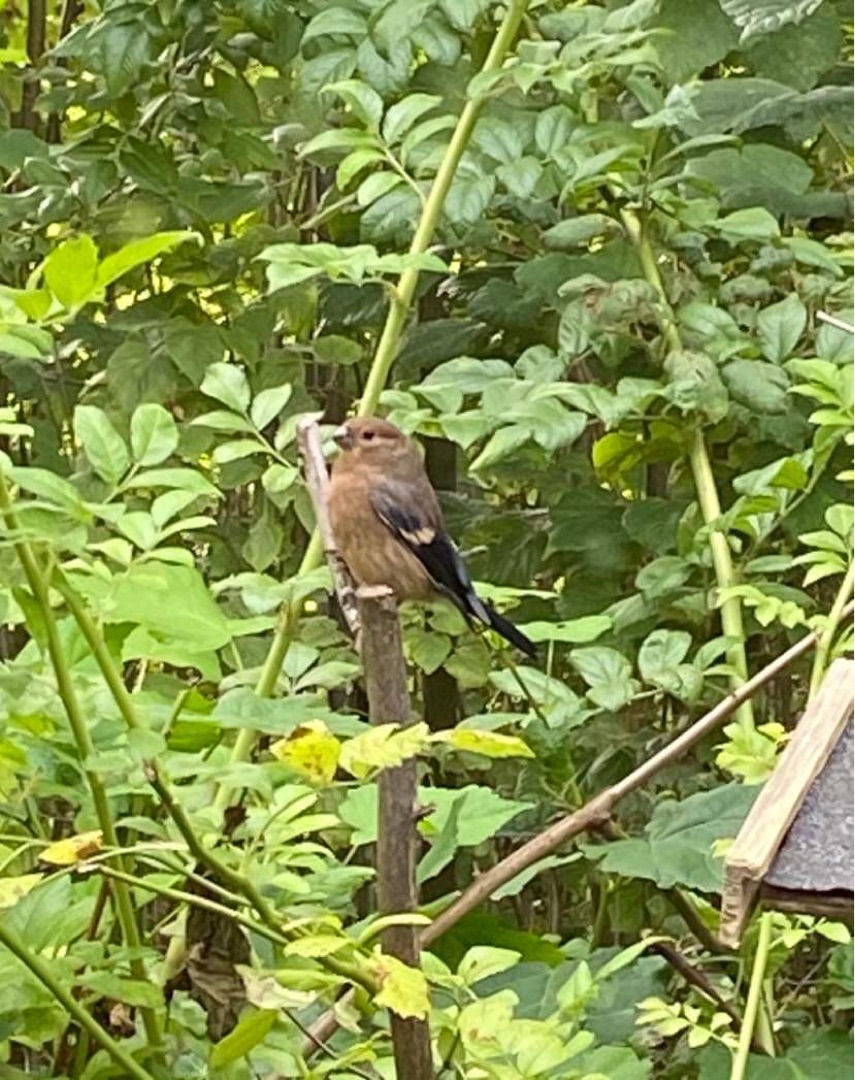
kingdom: Animalia
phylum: Chordata
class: Aves
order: Passeriformes
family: Fringillidae
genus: Pyrrhula
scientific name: Pyrrhula pyrrhula
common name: Dompap
